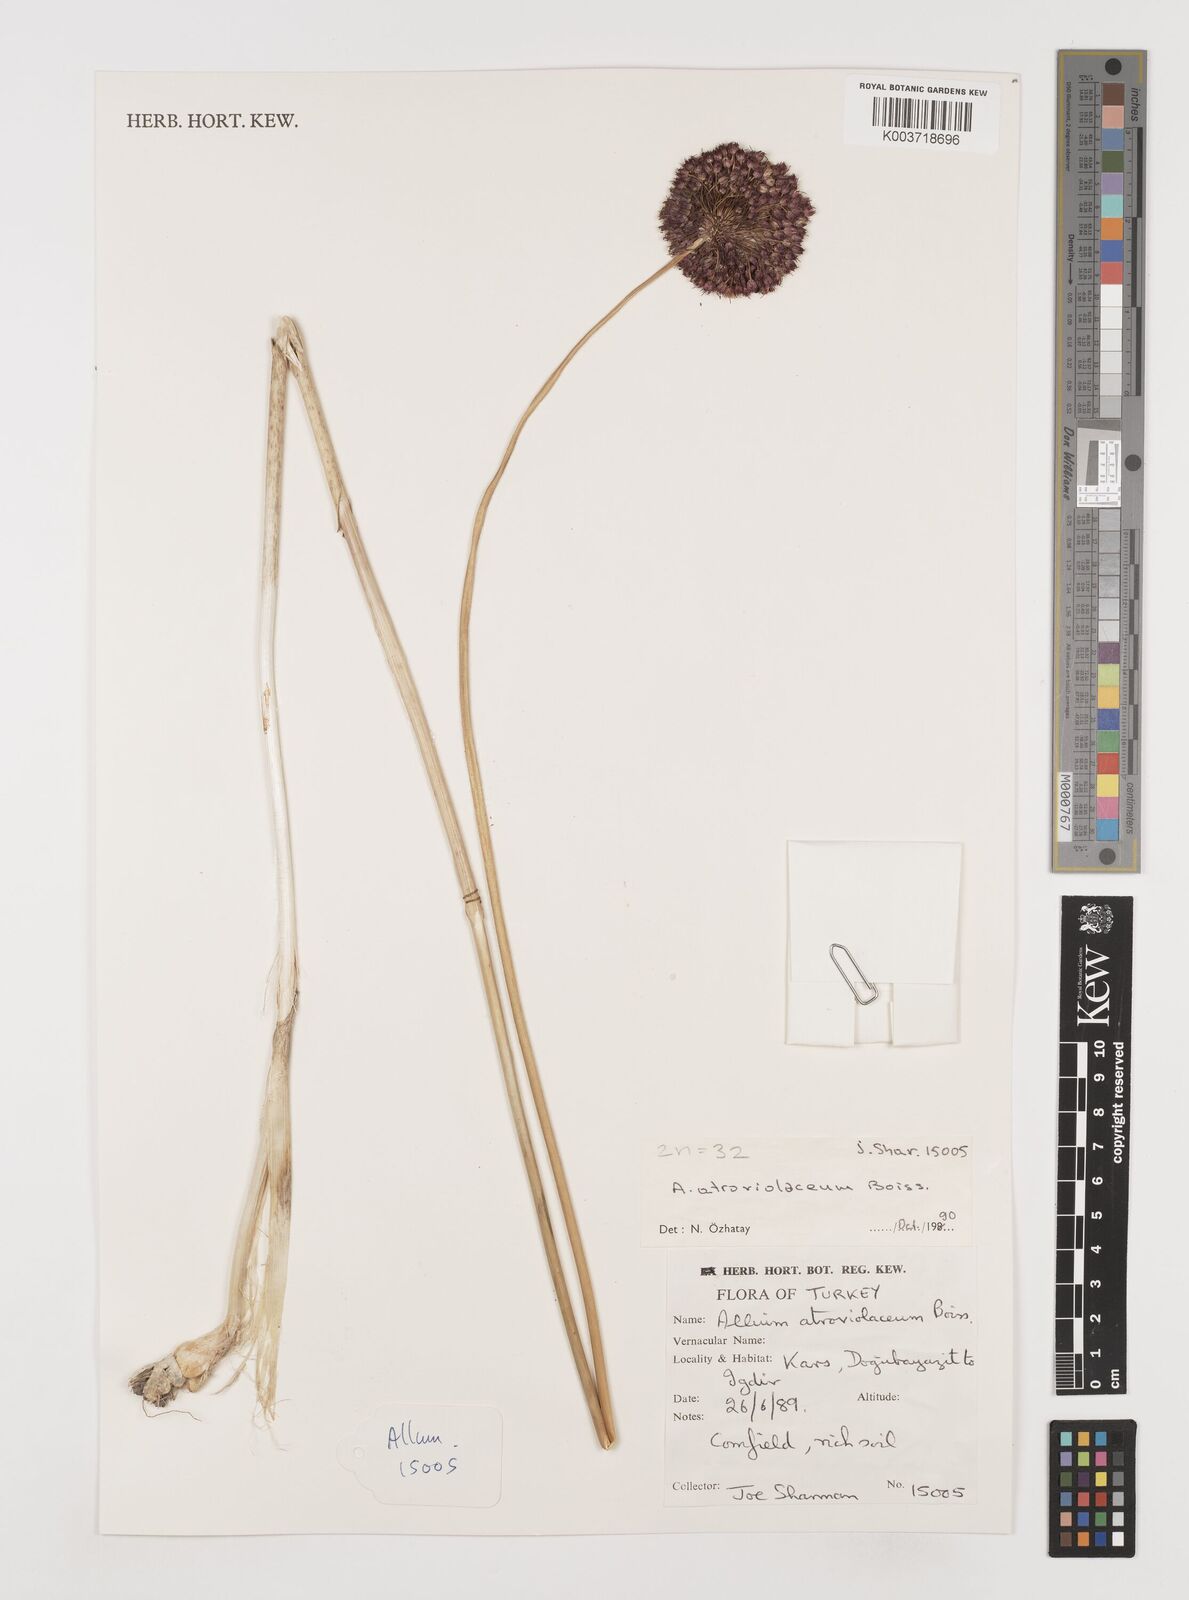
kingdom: Plantae
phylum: Tracheophyta
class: Liliopsida
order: Asparagales
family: Amaryllidaceae
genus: Allium
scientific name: Allium atroviolaceum
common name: Broadleaf wild leek
